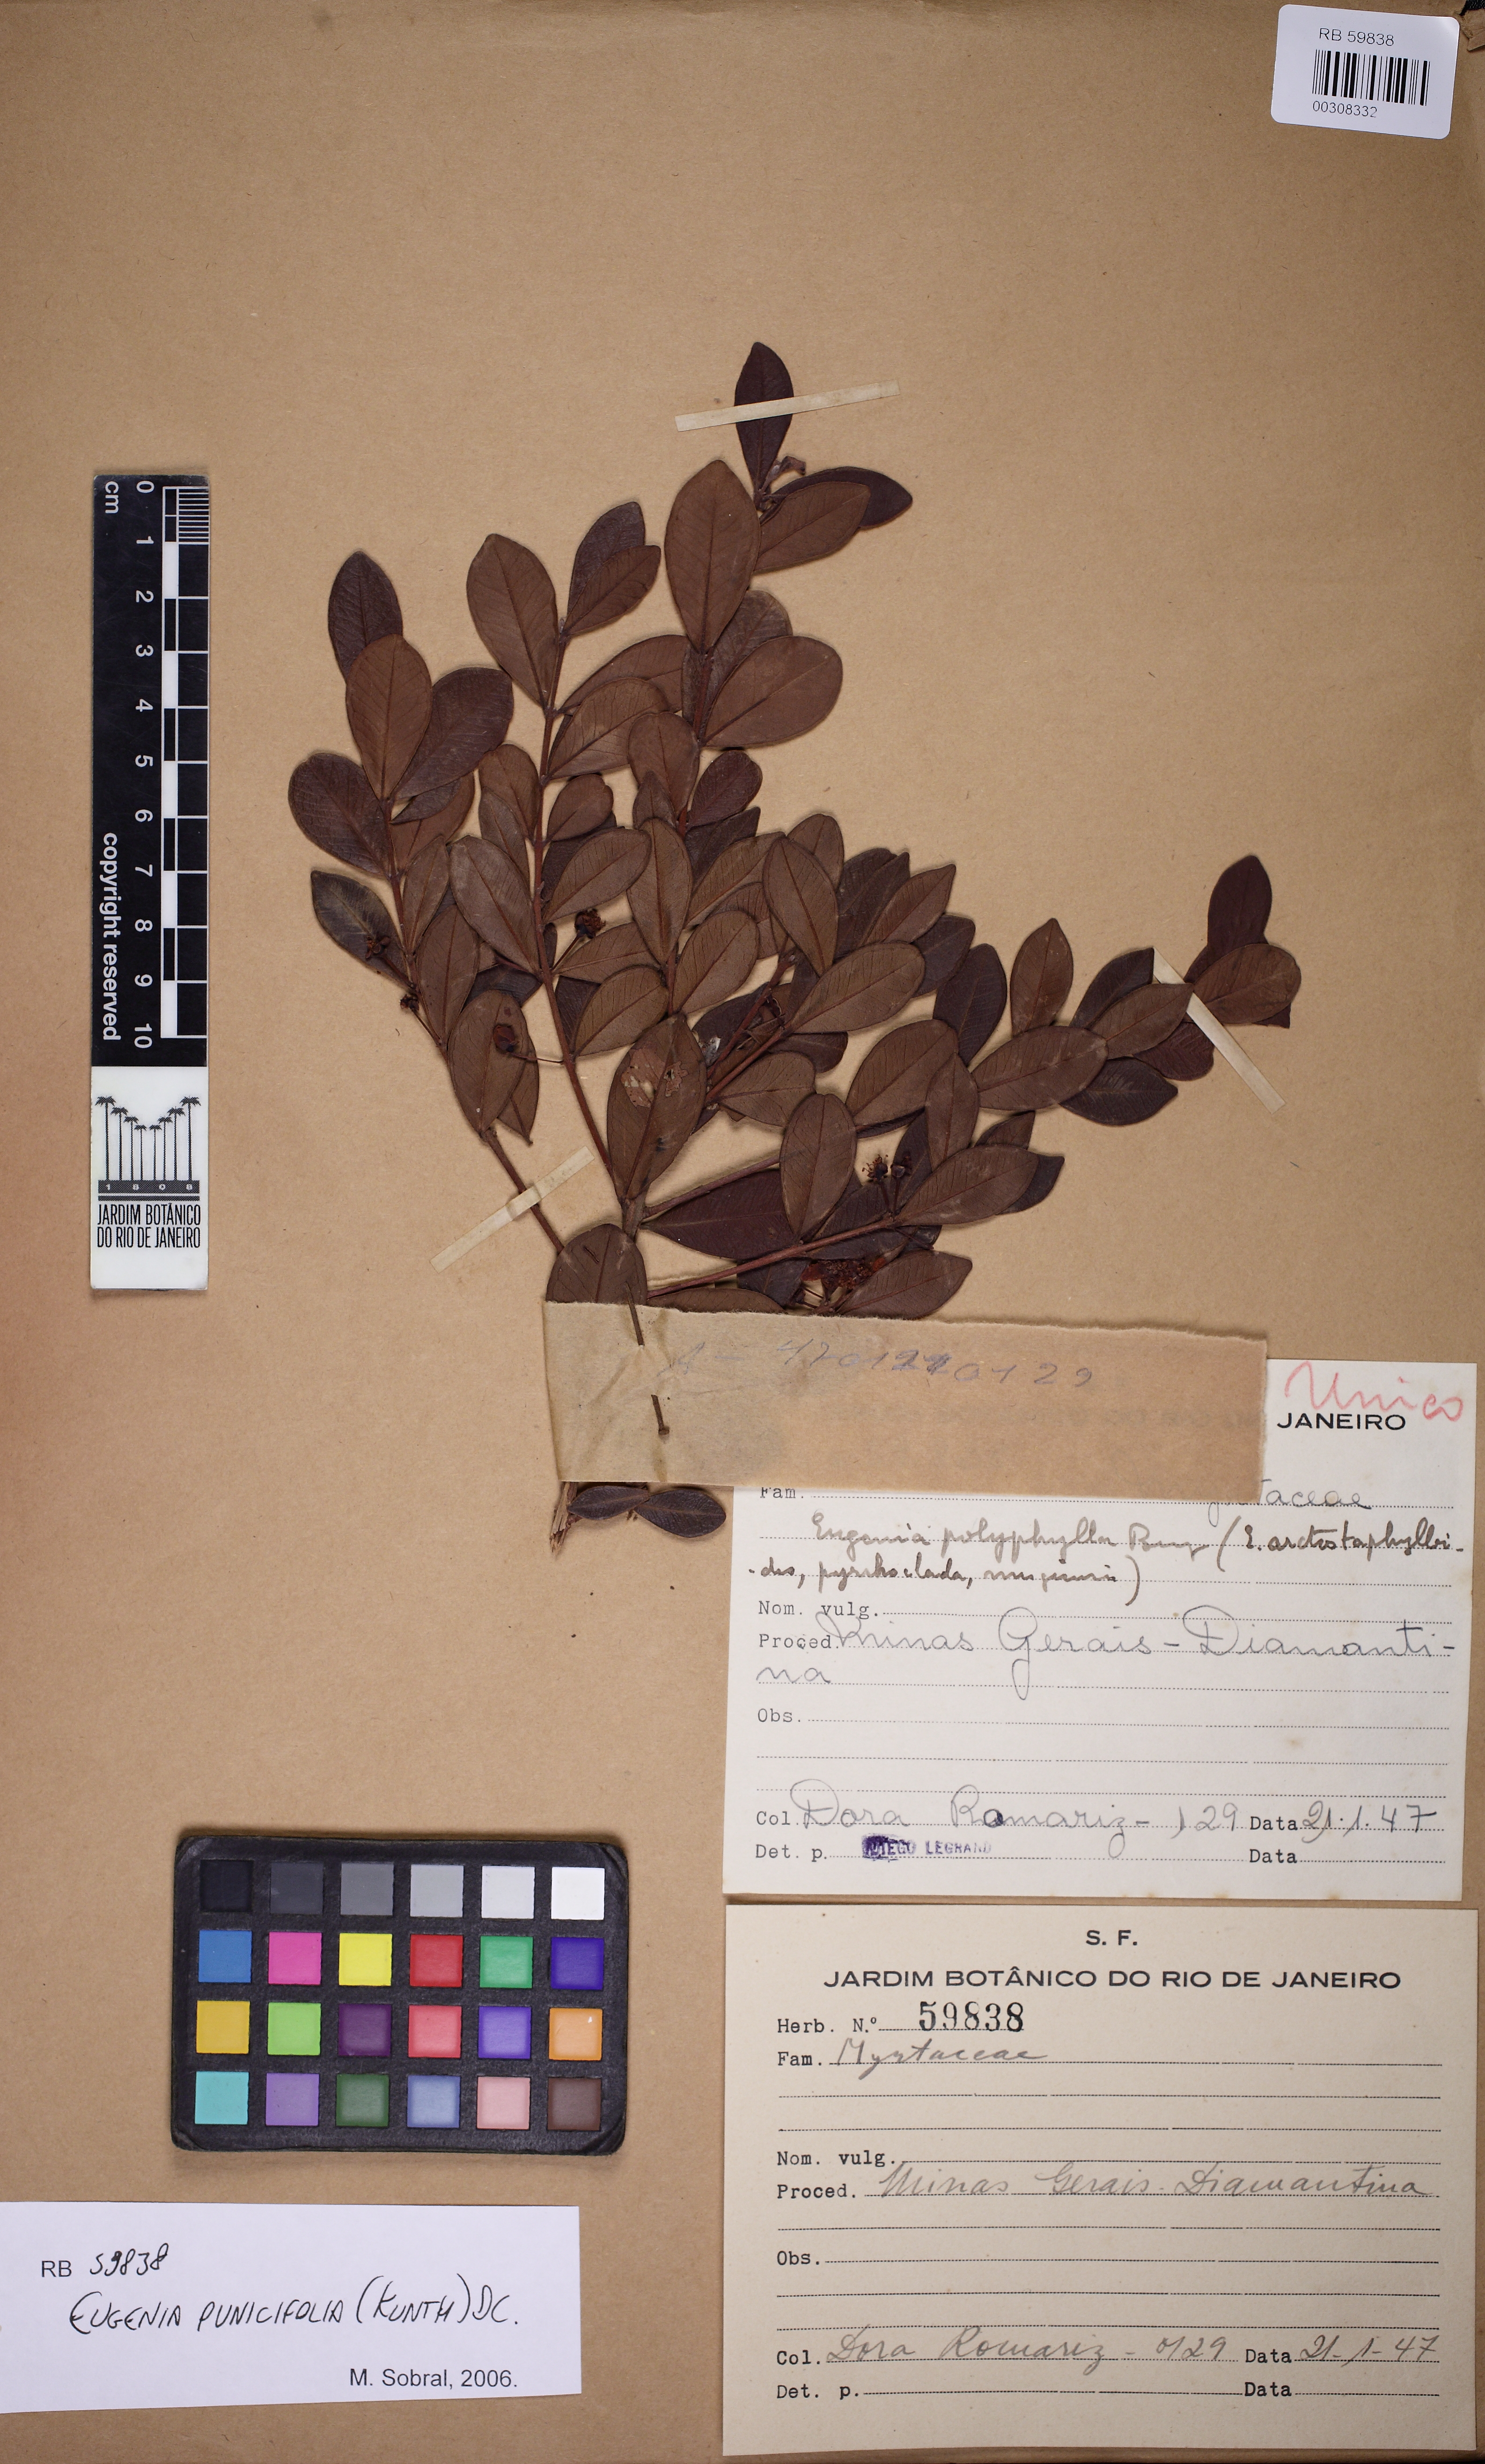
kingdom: Plantae
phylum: Tracheophyta
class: Magnoliopsida
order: Myrtales
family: Myrtaceae
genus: Eugenia
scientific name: Eugenia punicifolia
